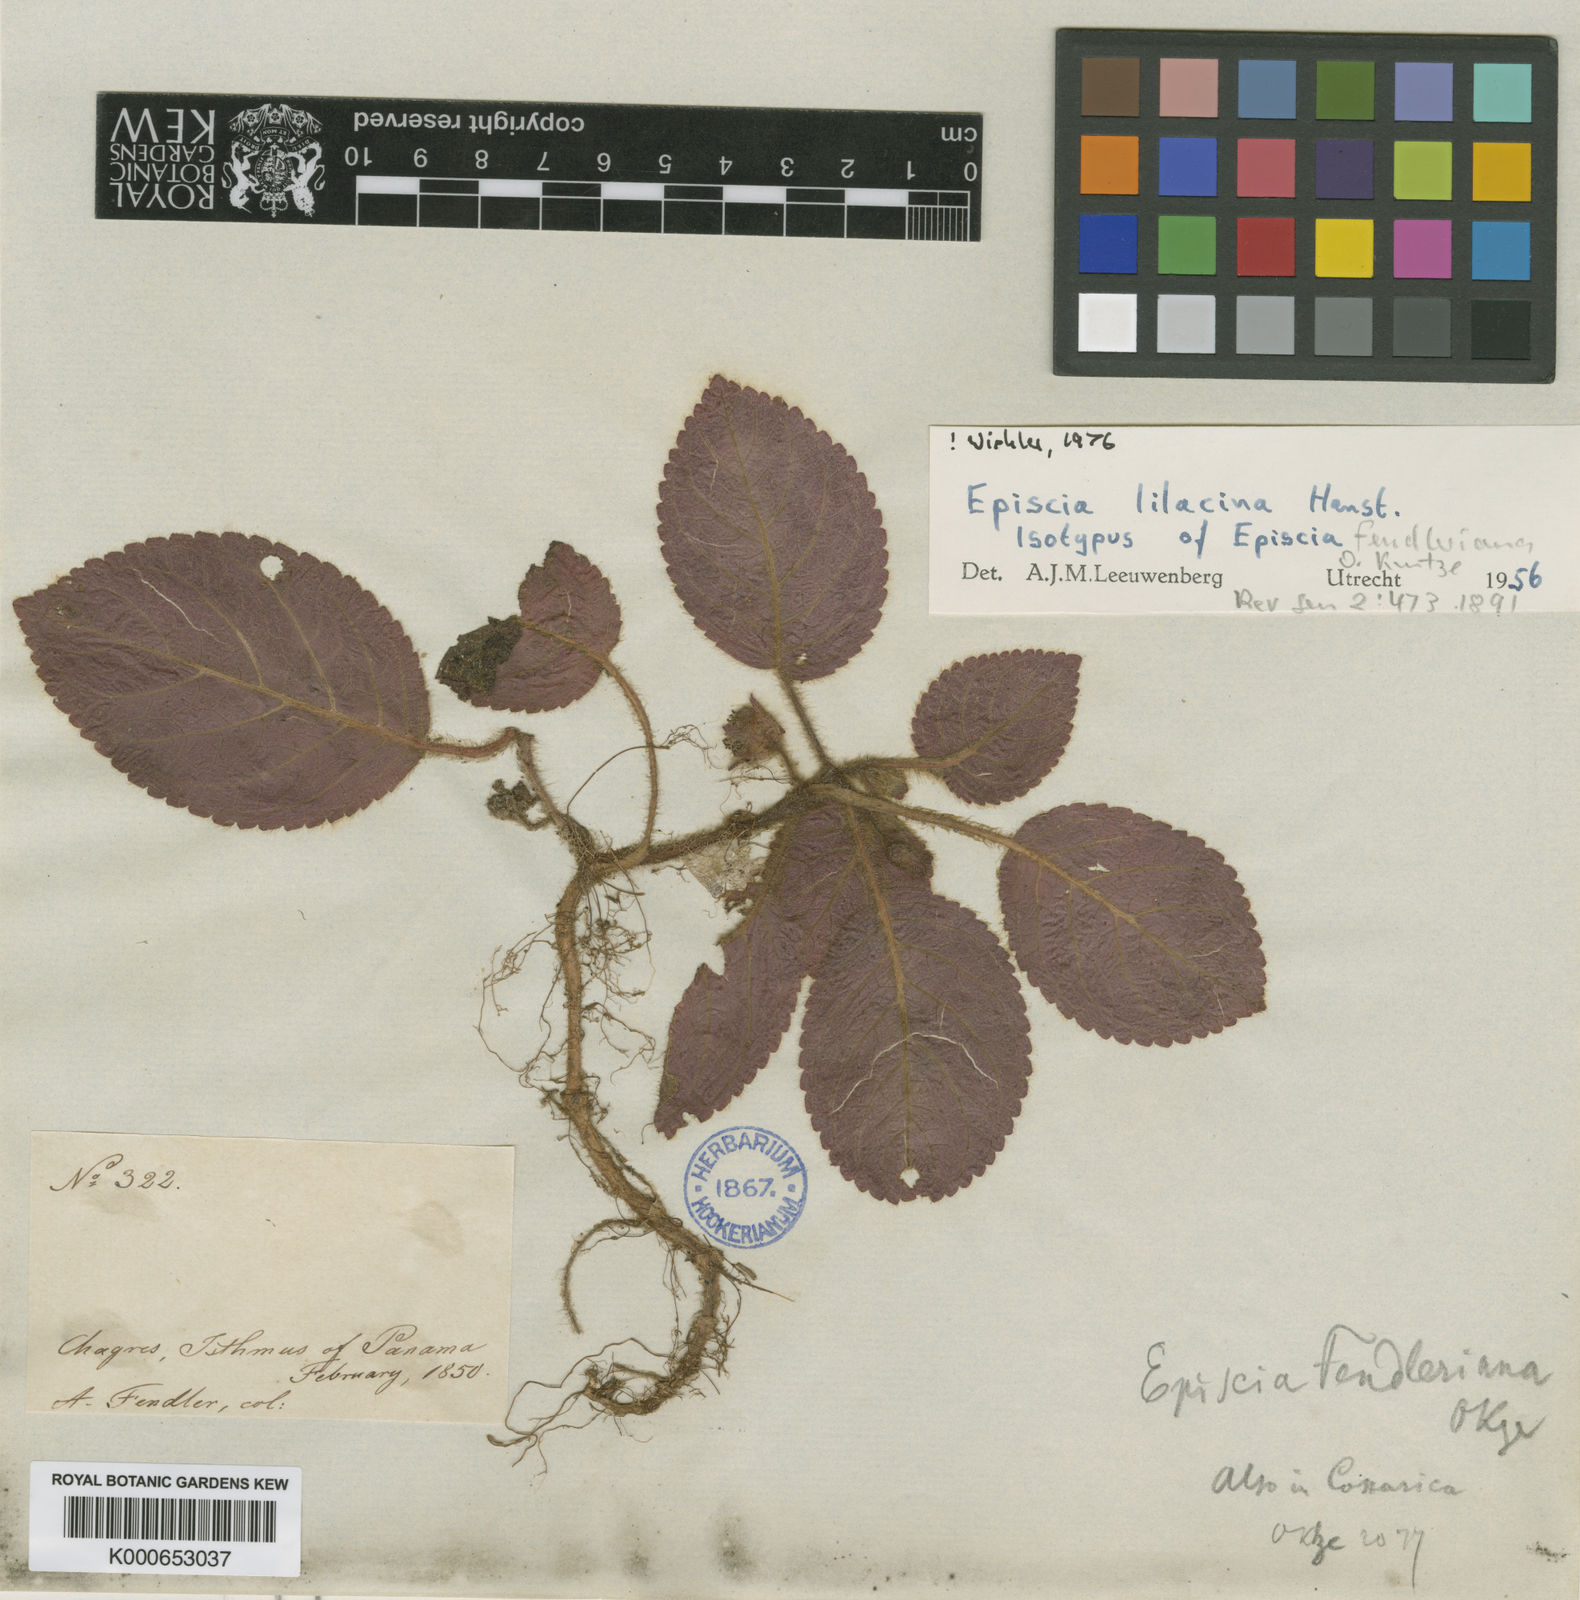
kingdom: Plantae
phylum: Tracheophyta
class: Magnoliopsida
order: Lamiales
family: Gesneriaceae
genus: Episcia
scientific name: Episcia lilacina
